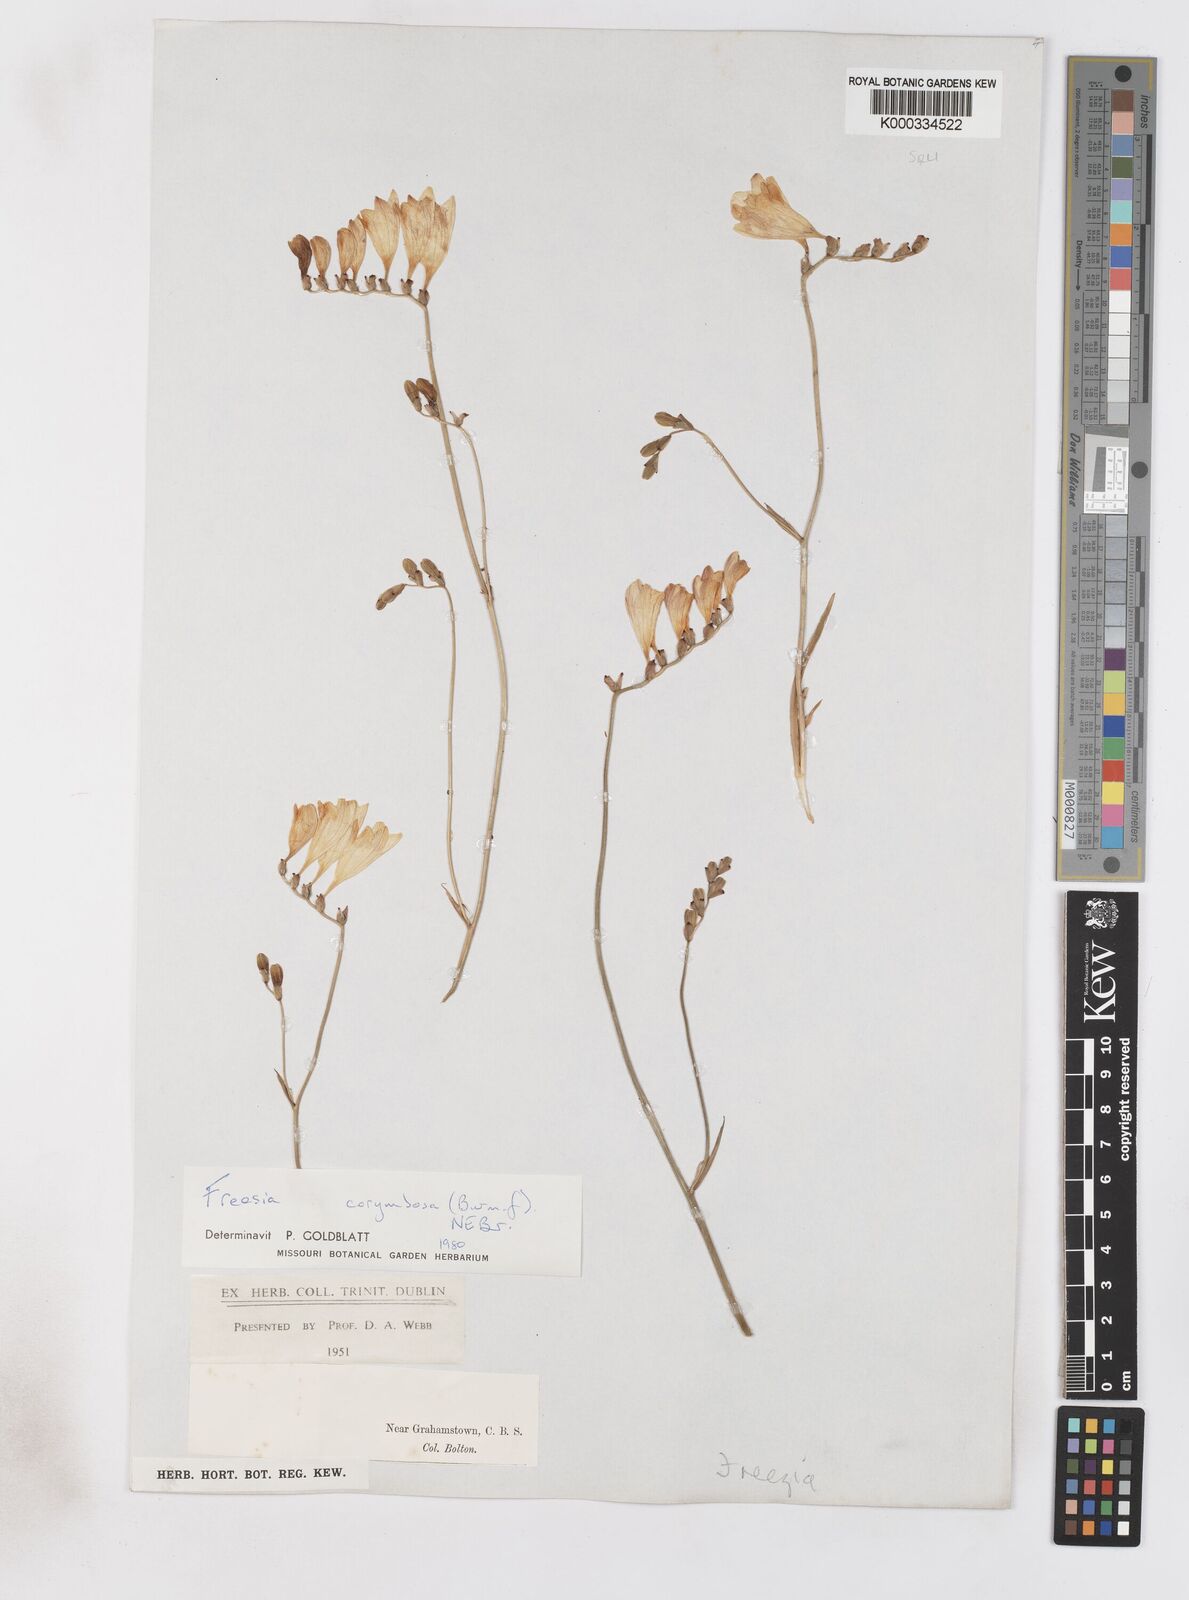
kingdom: Plantae
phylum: Tracheophyta
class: Liliopsida
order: Asparagales
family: Iridaceae
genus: Freesia
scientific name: Freesia corymbosa
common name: Common freesia
